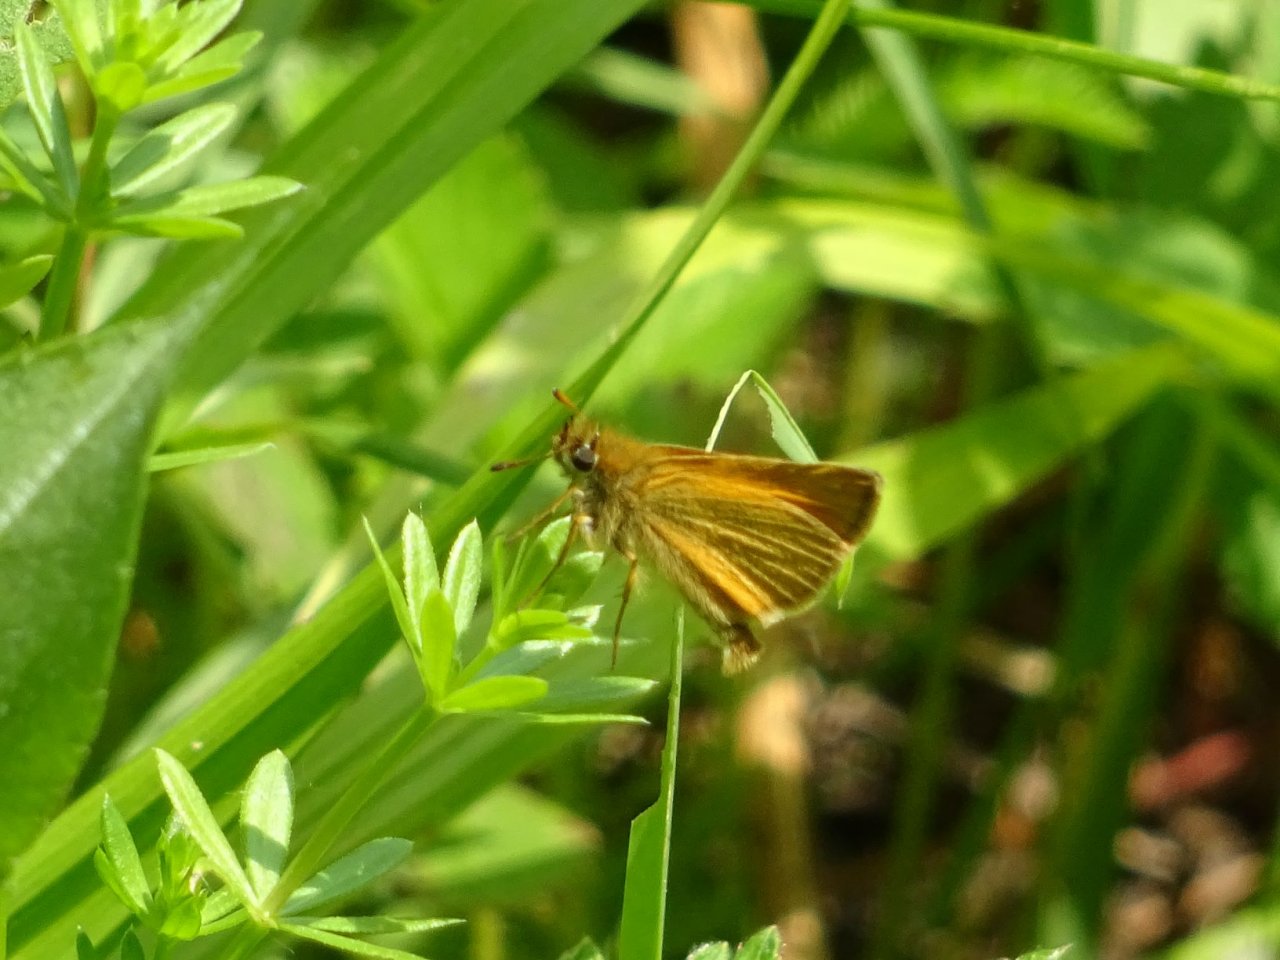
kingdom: Animalia
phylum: Arthropoda
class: Insecta
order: Lepidoptera
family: Hesperiidae
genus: Thymelicus
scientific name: Thymelicus lineola
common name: European Skipper
